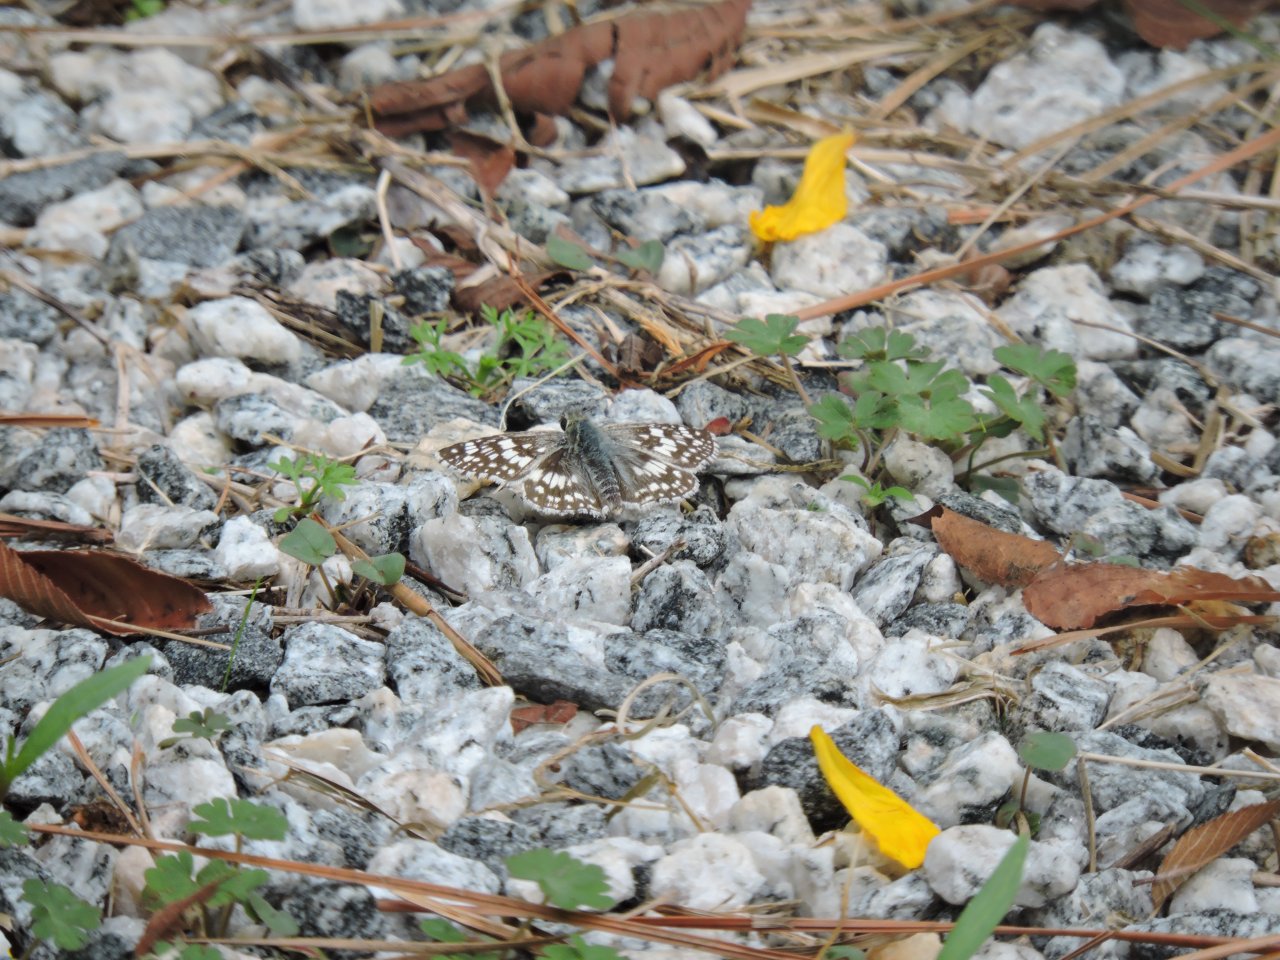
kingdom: Animalia
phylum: Arthropoda
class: Insecta
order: Lepidoptera
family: Hesperiidae
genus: Pyrgus
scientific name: Pyrgus
